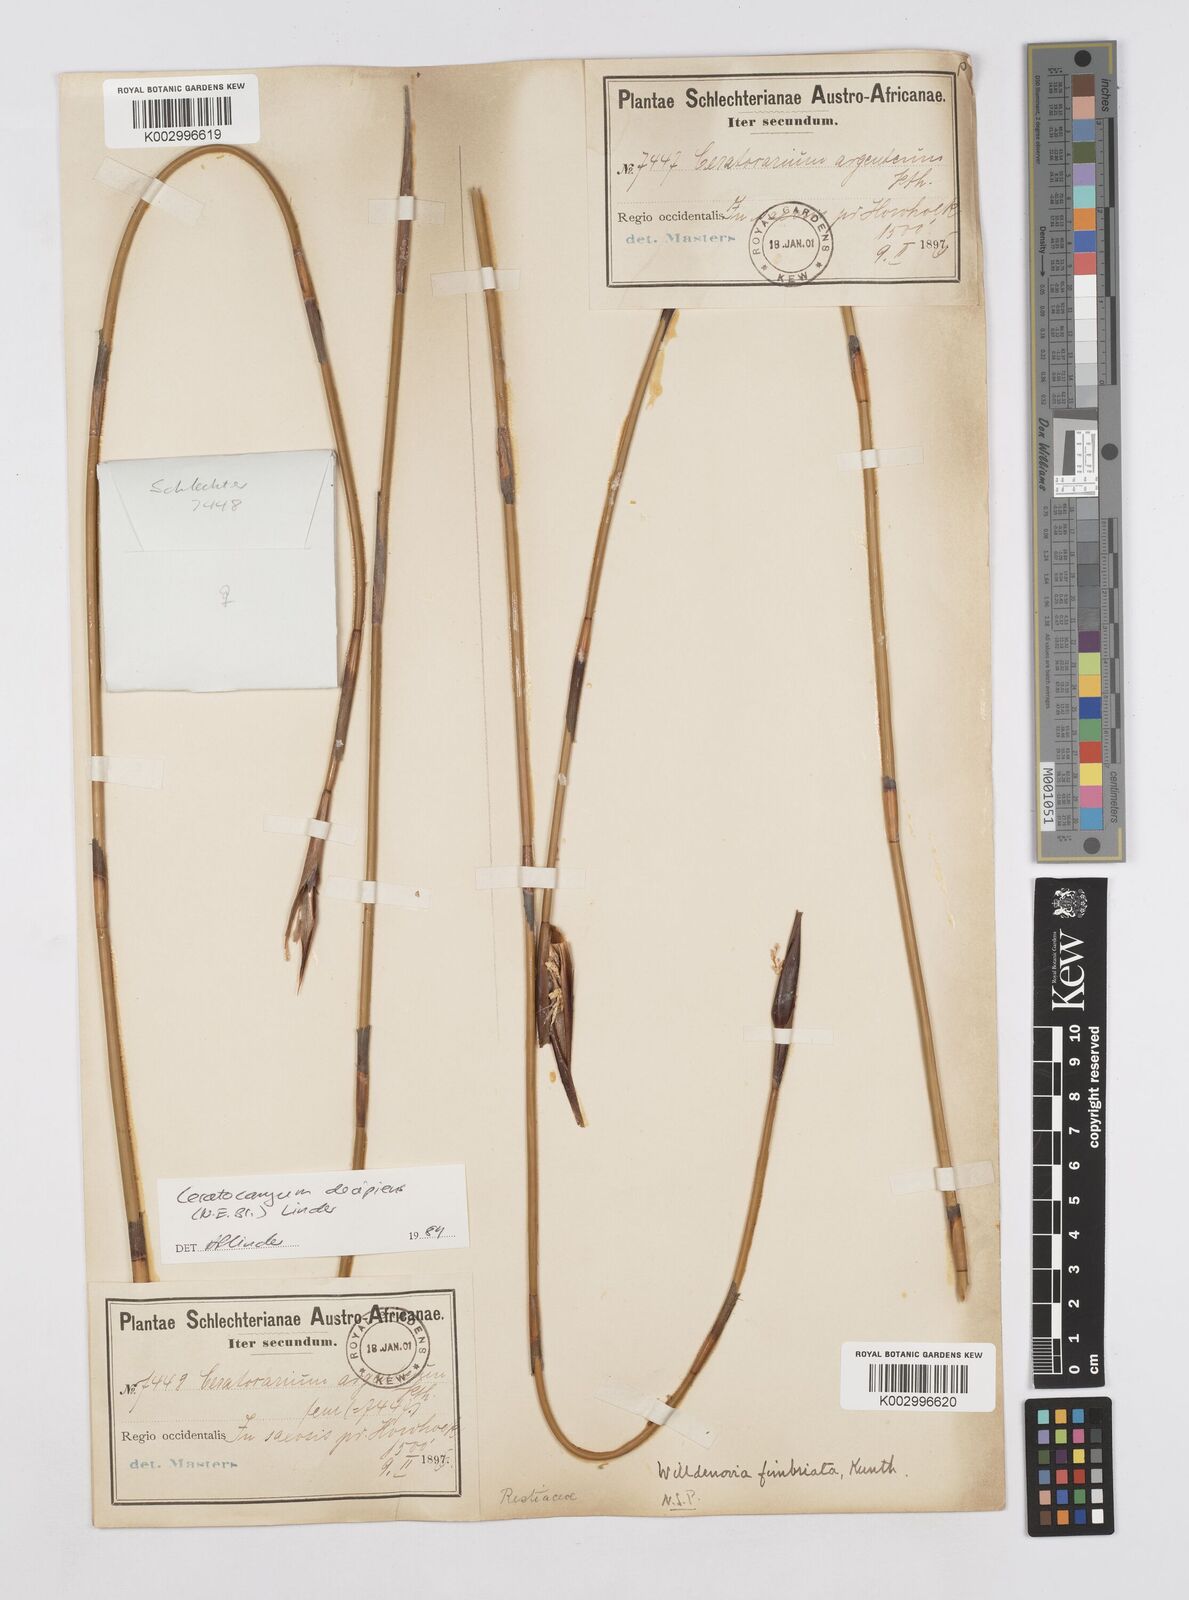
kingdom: Plantae
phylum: Tracheophyta
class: Liliopsida
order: Poales
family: Restionaceae
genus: Ceratocaryum
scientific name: Ceratocaryum decipiens
